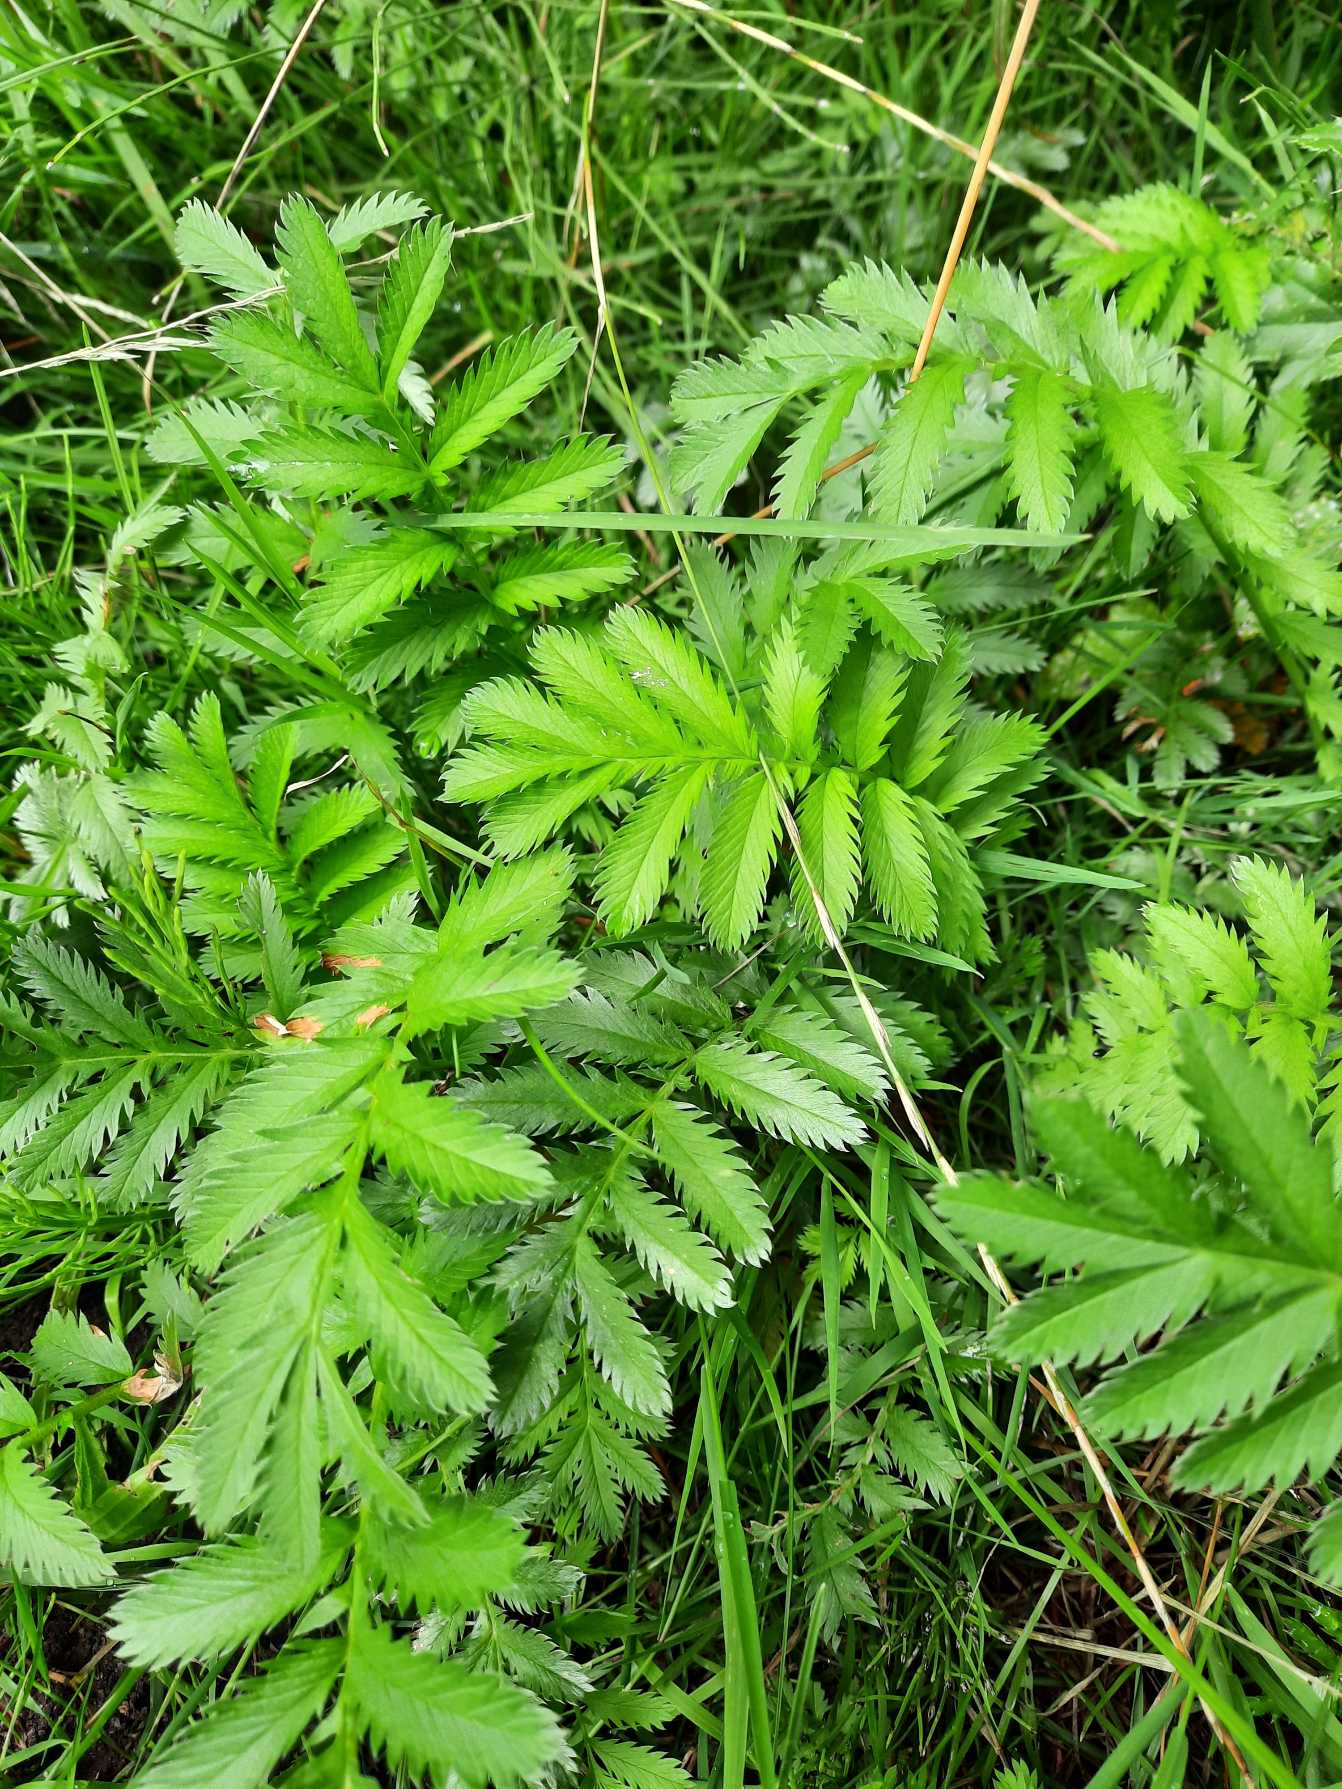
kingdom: Plantae
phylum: Tracheophyta
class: Magnoliopsida
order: Rosales
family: Rosaceae
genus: Argentina
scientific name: Argentina anserina
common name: Gåsepotentil
